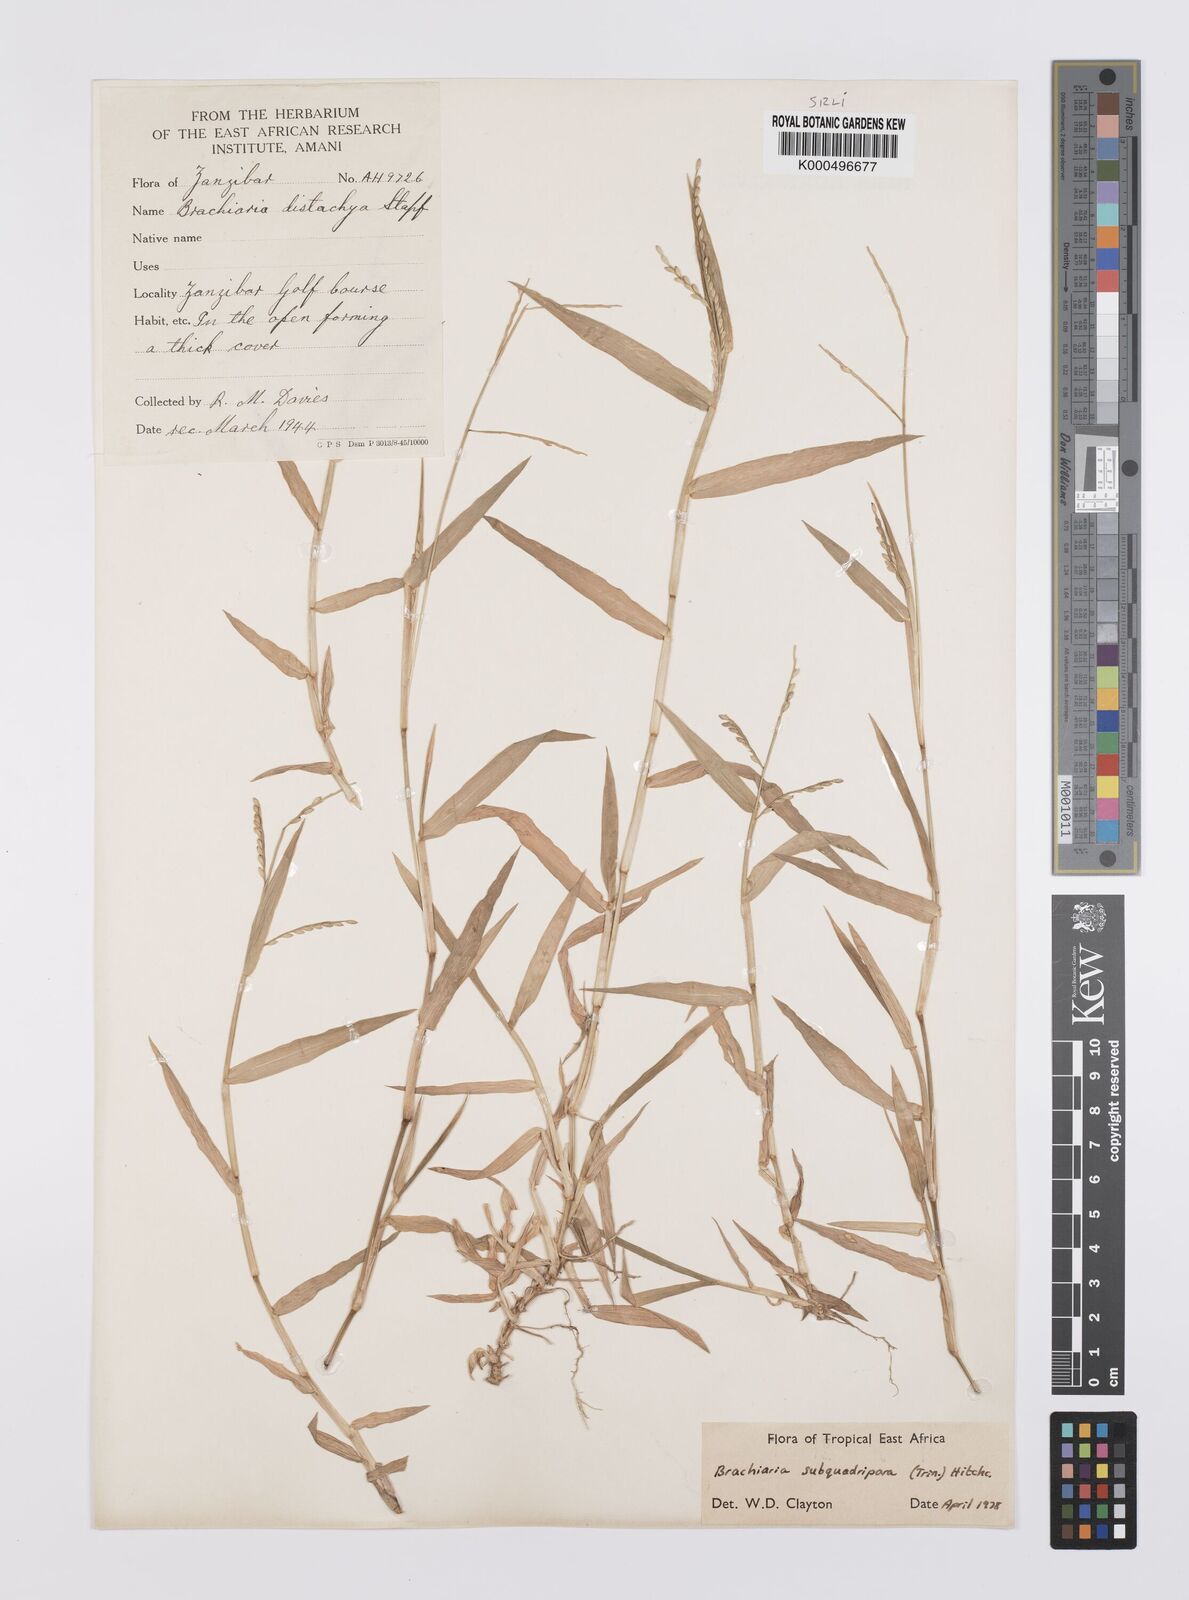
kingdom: Plantae
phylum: Tracheophyta
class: Liliopsida
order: Poales
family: Poaceae
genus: Urochloa
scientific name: Urochloa subquadripara
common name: Armgrass millet
